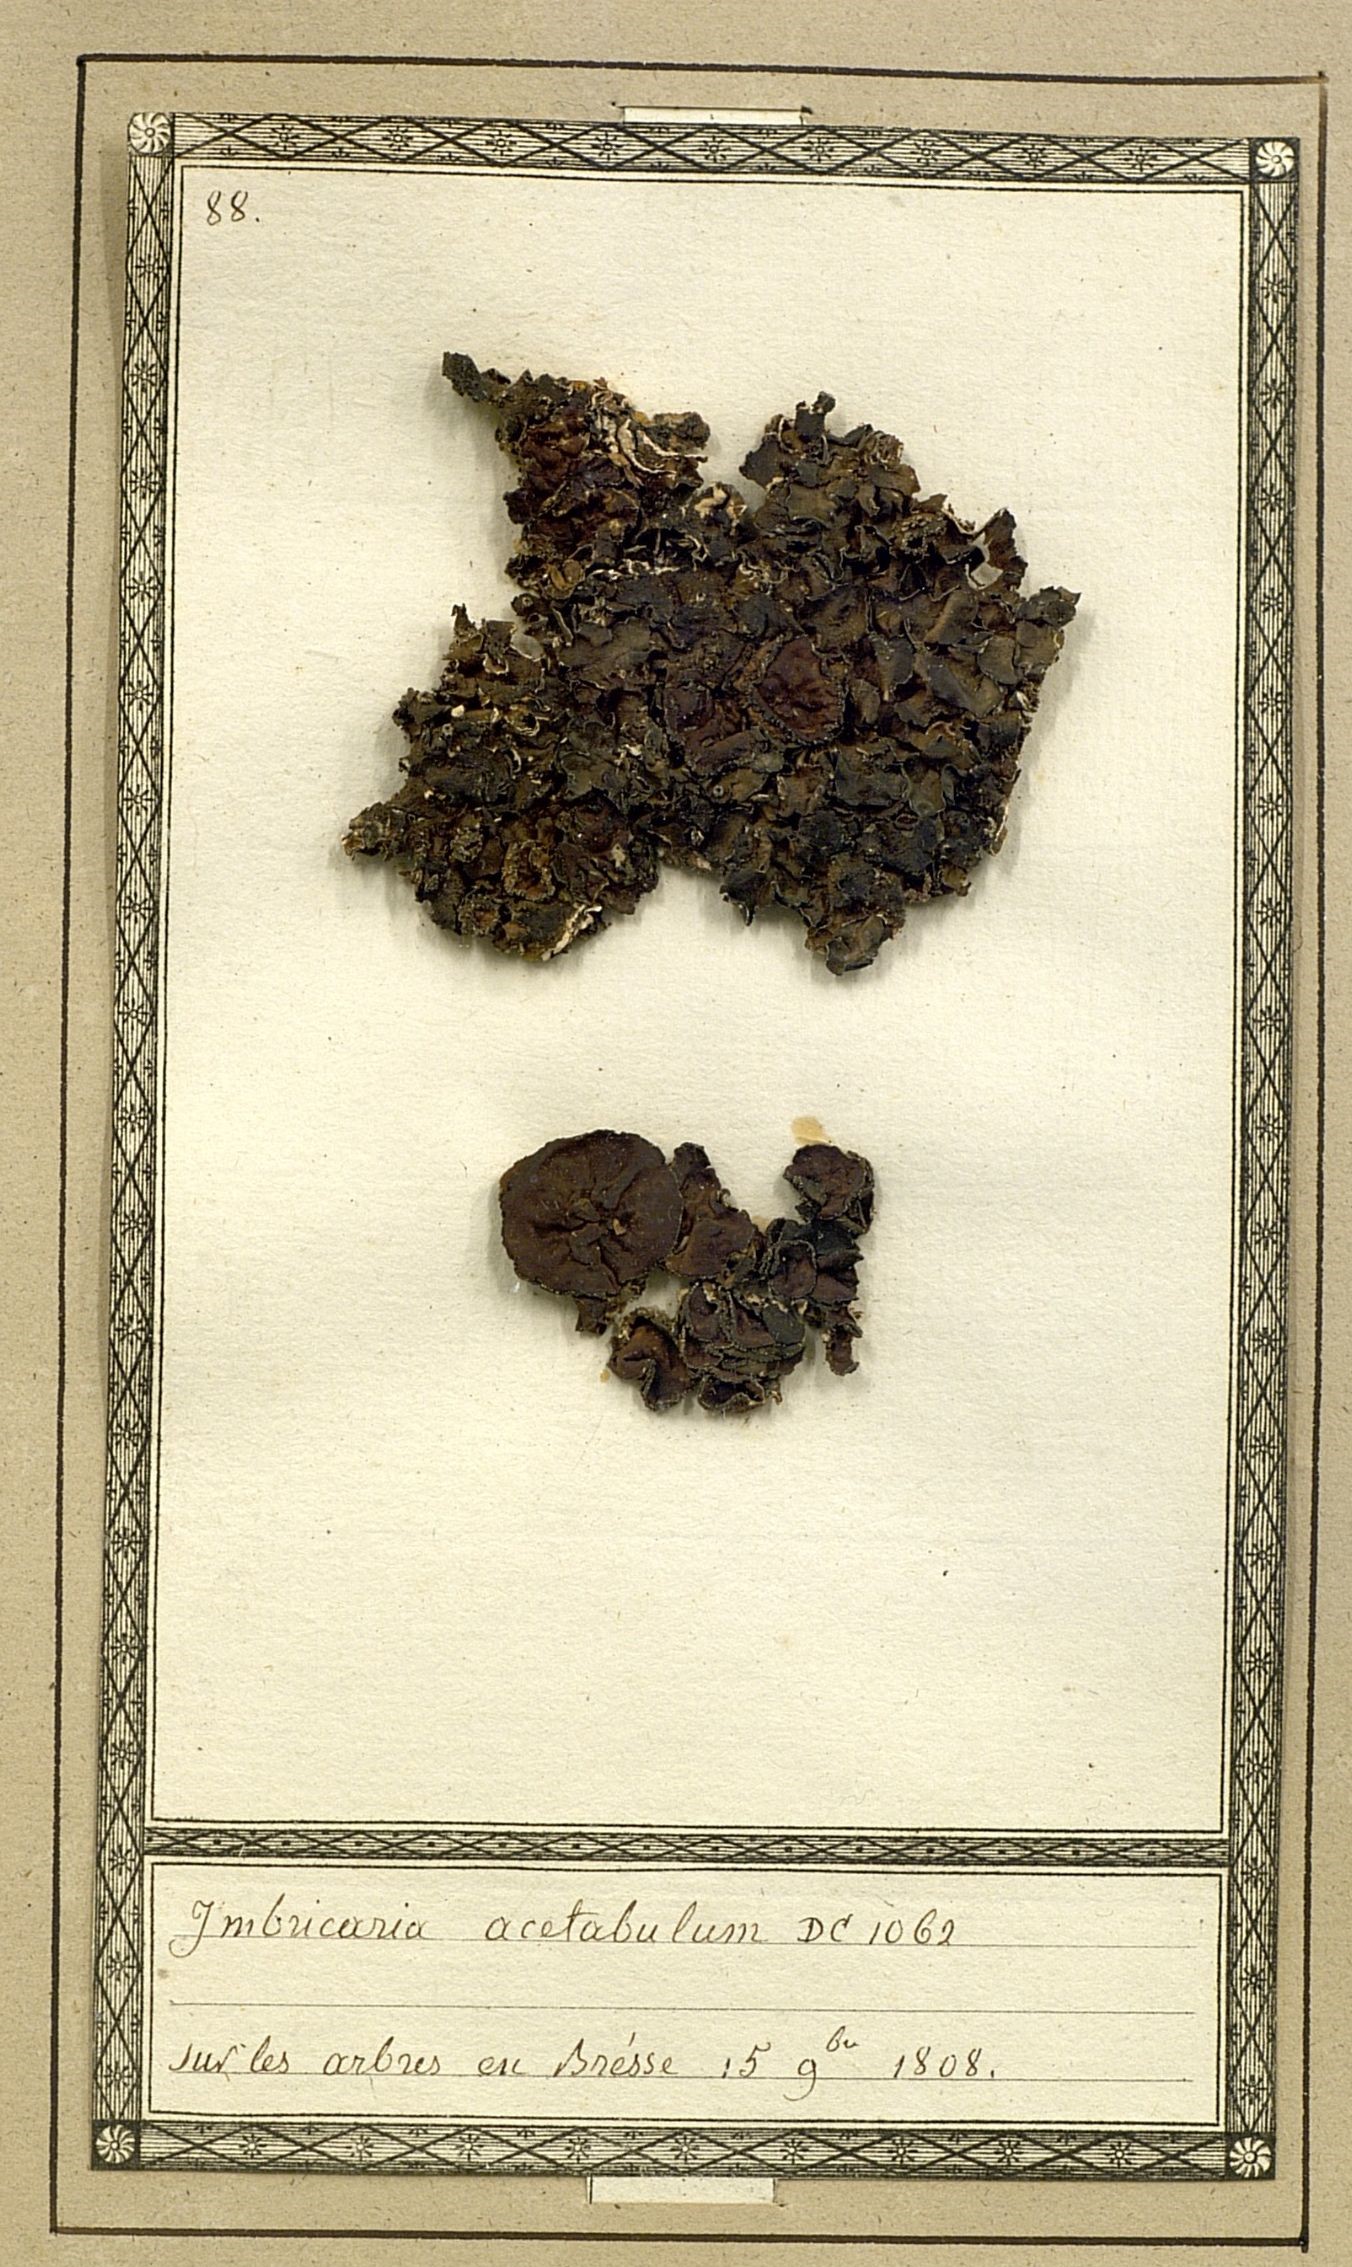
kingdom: Fungi
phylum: Ascomycota
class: Lecanoromycetes
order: Lecanorales
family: Parmeliaceae
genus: Pleurosticta
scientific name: Pleurosticta acetabulum
